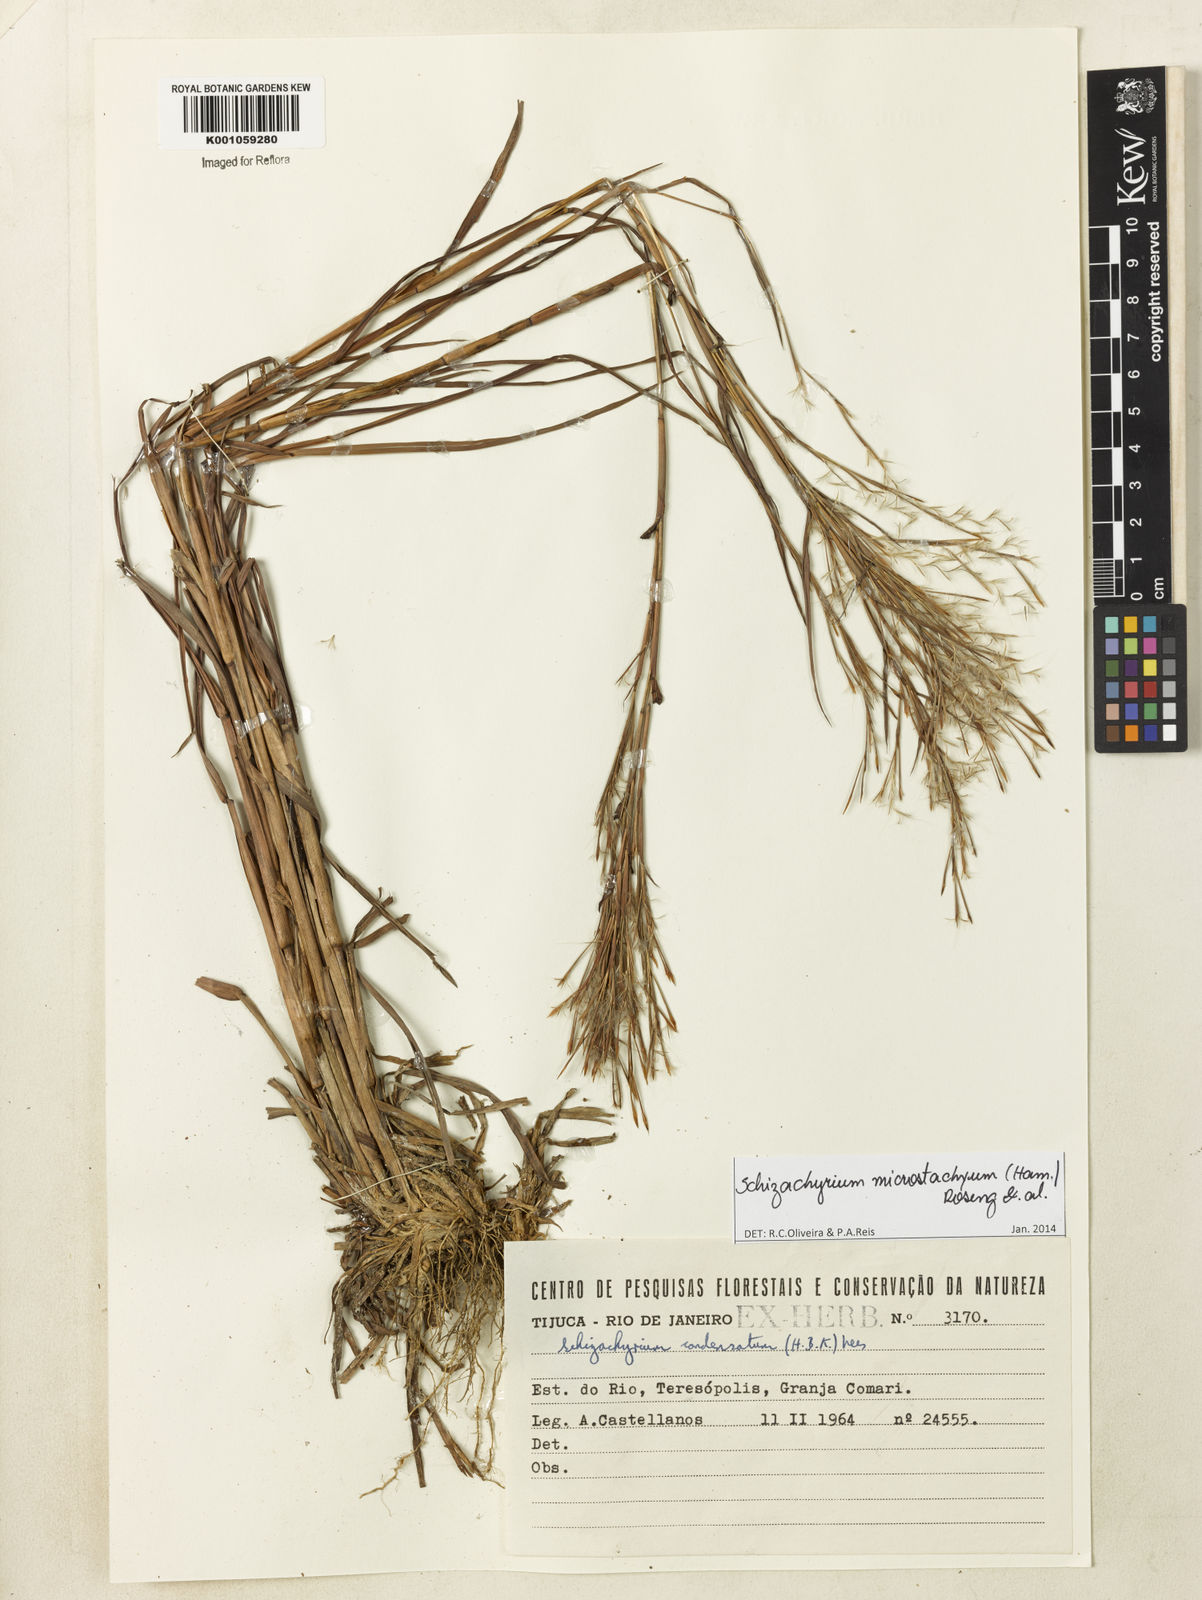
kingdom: Plantae
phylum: Tracheophyta
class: Liliopsida
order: Poales
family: Poaceae
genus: Schizachyrium
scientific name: Schizachyrium
